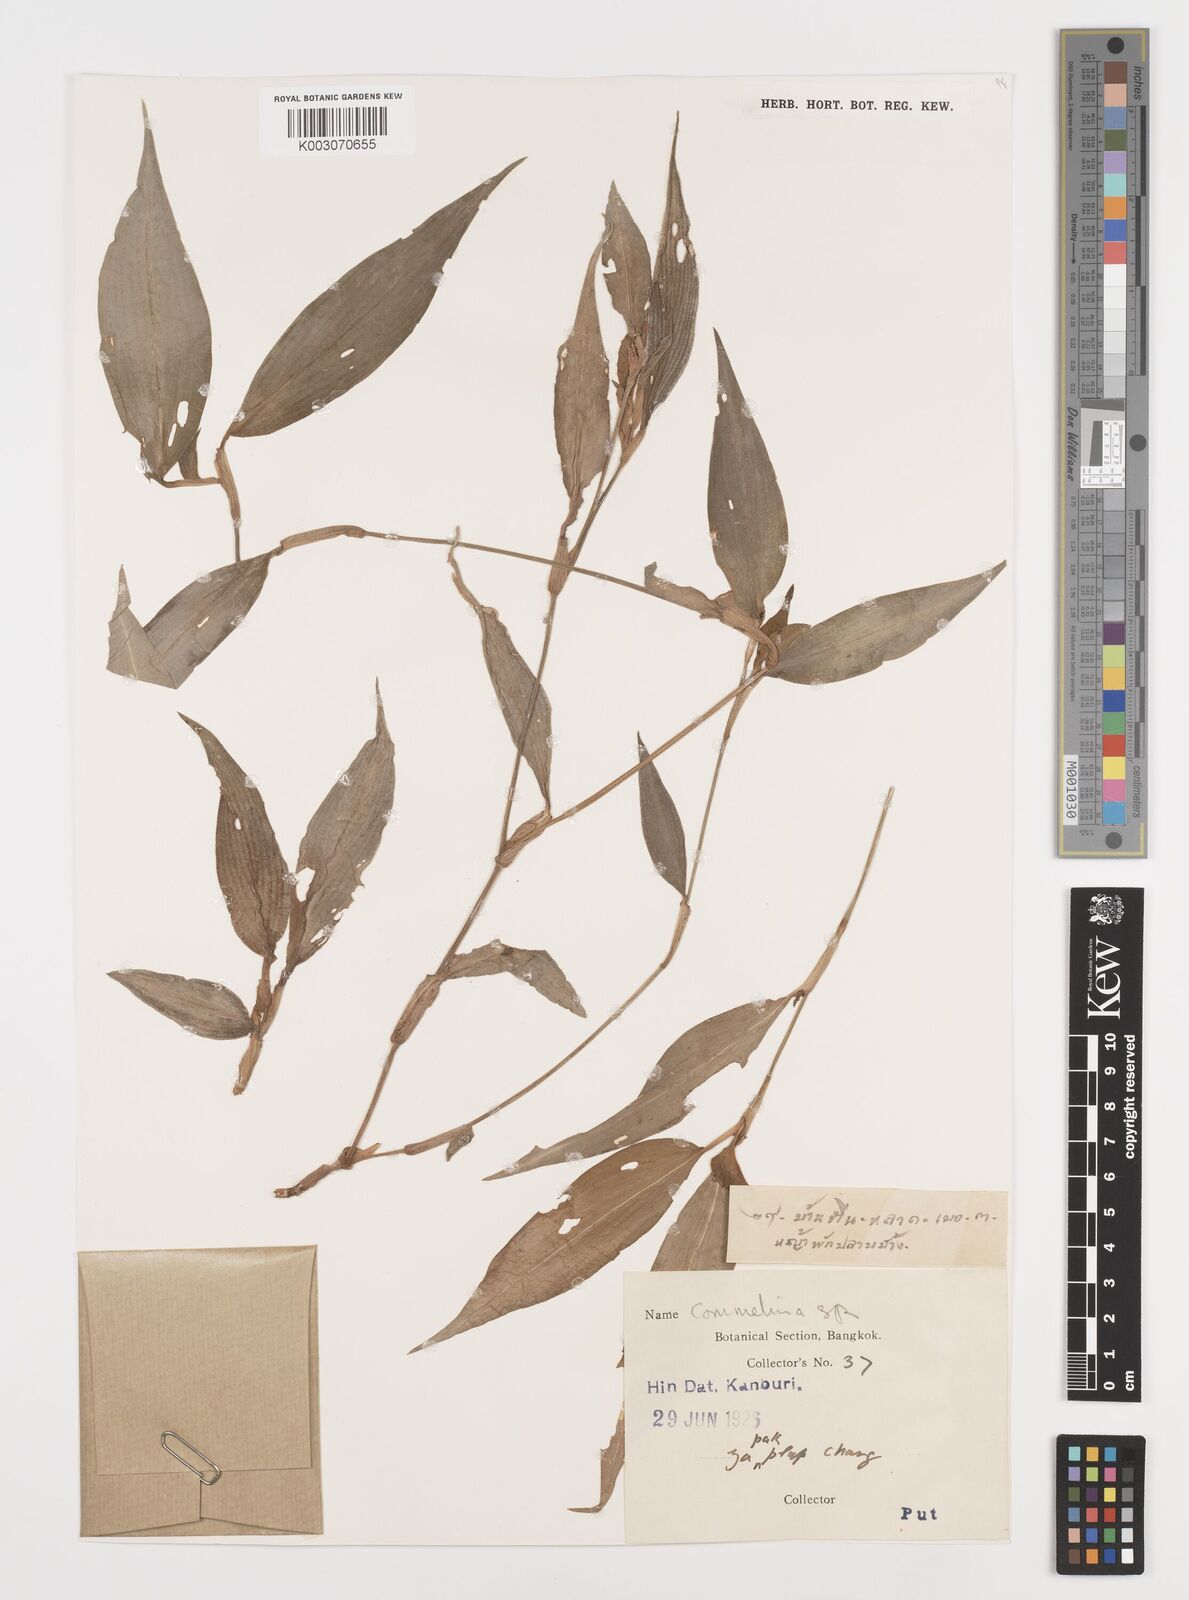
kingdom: Plantae
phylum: Tracheophyta
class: Liliopsida
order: Commelinales
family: Commelinaceae
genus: Commelina
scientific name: Commelina
